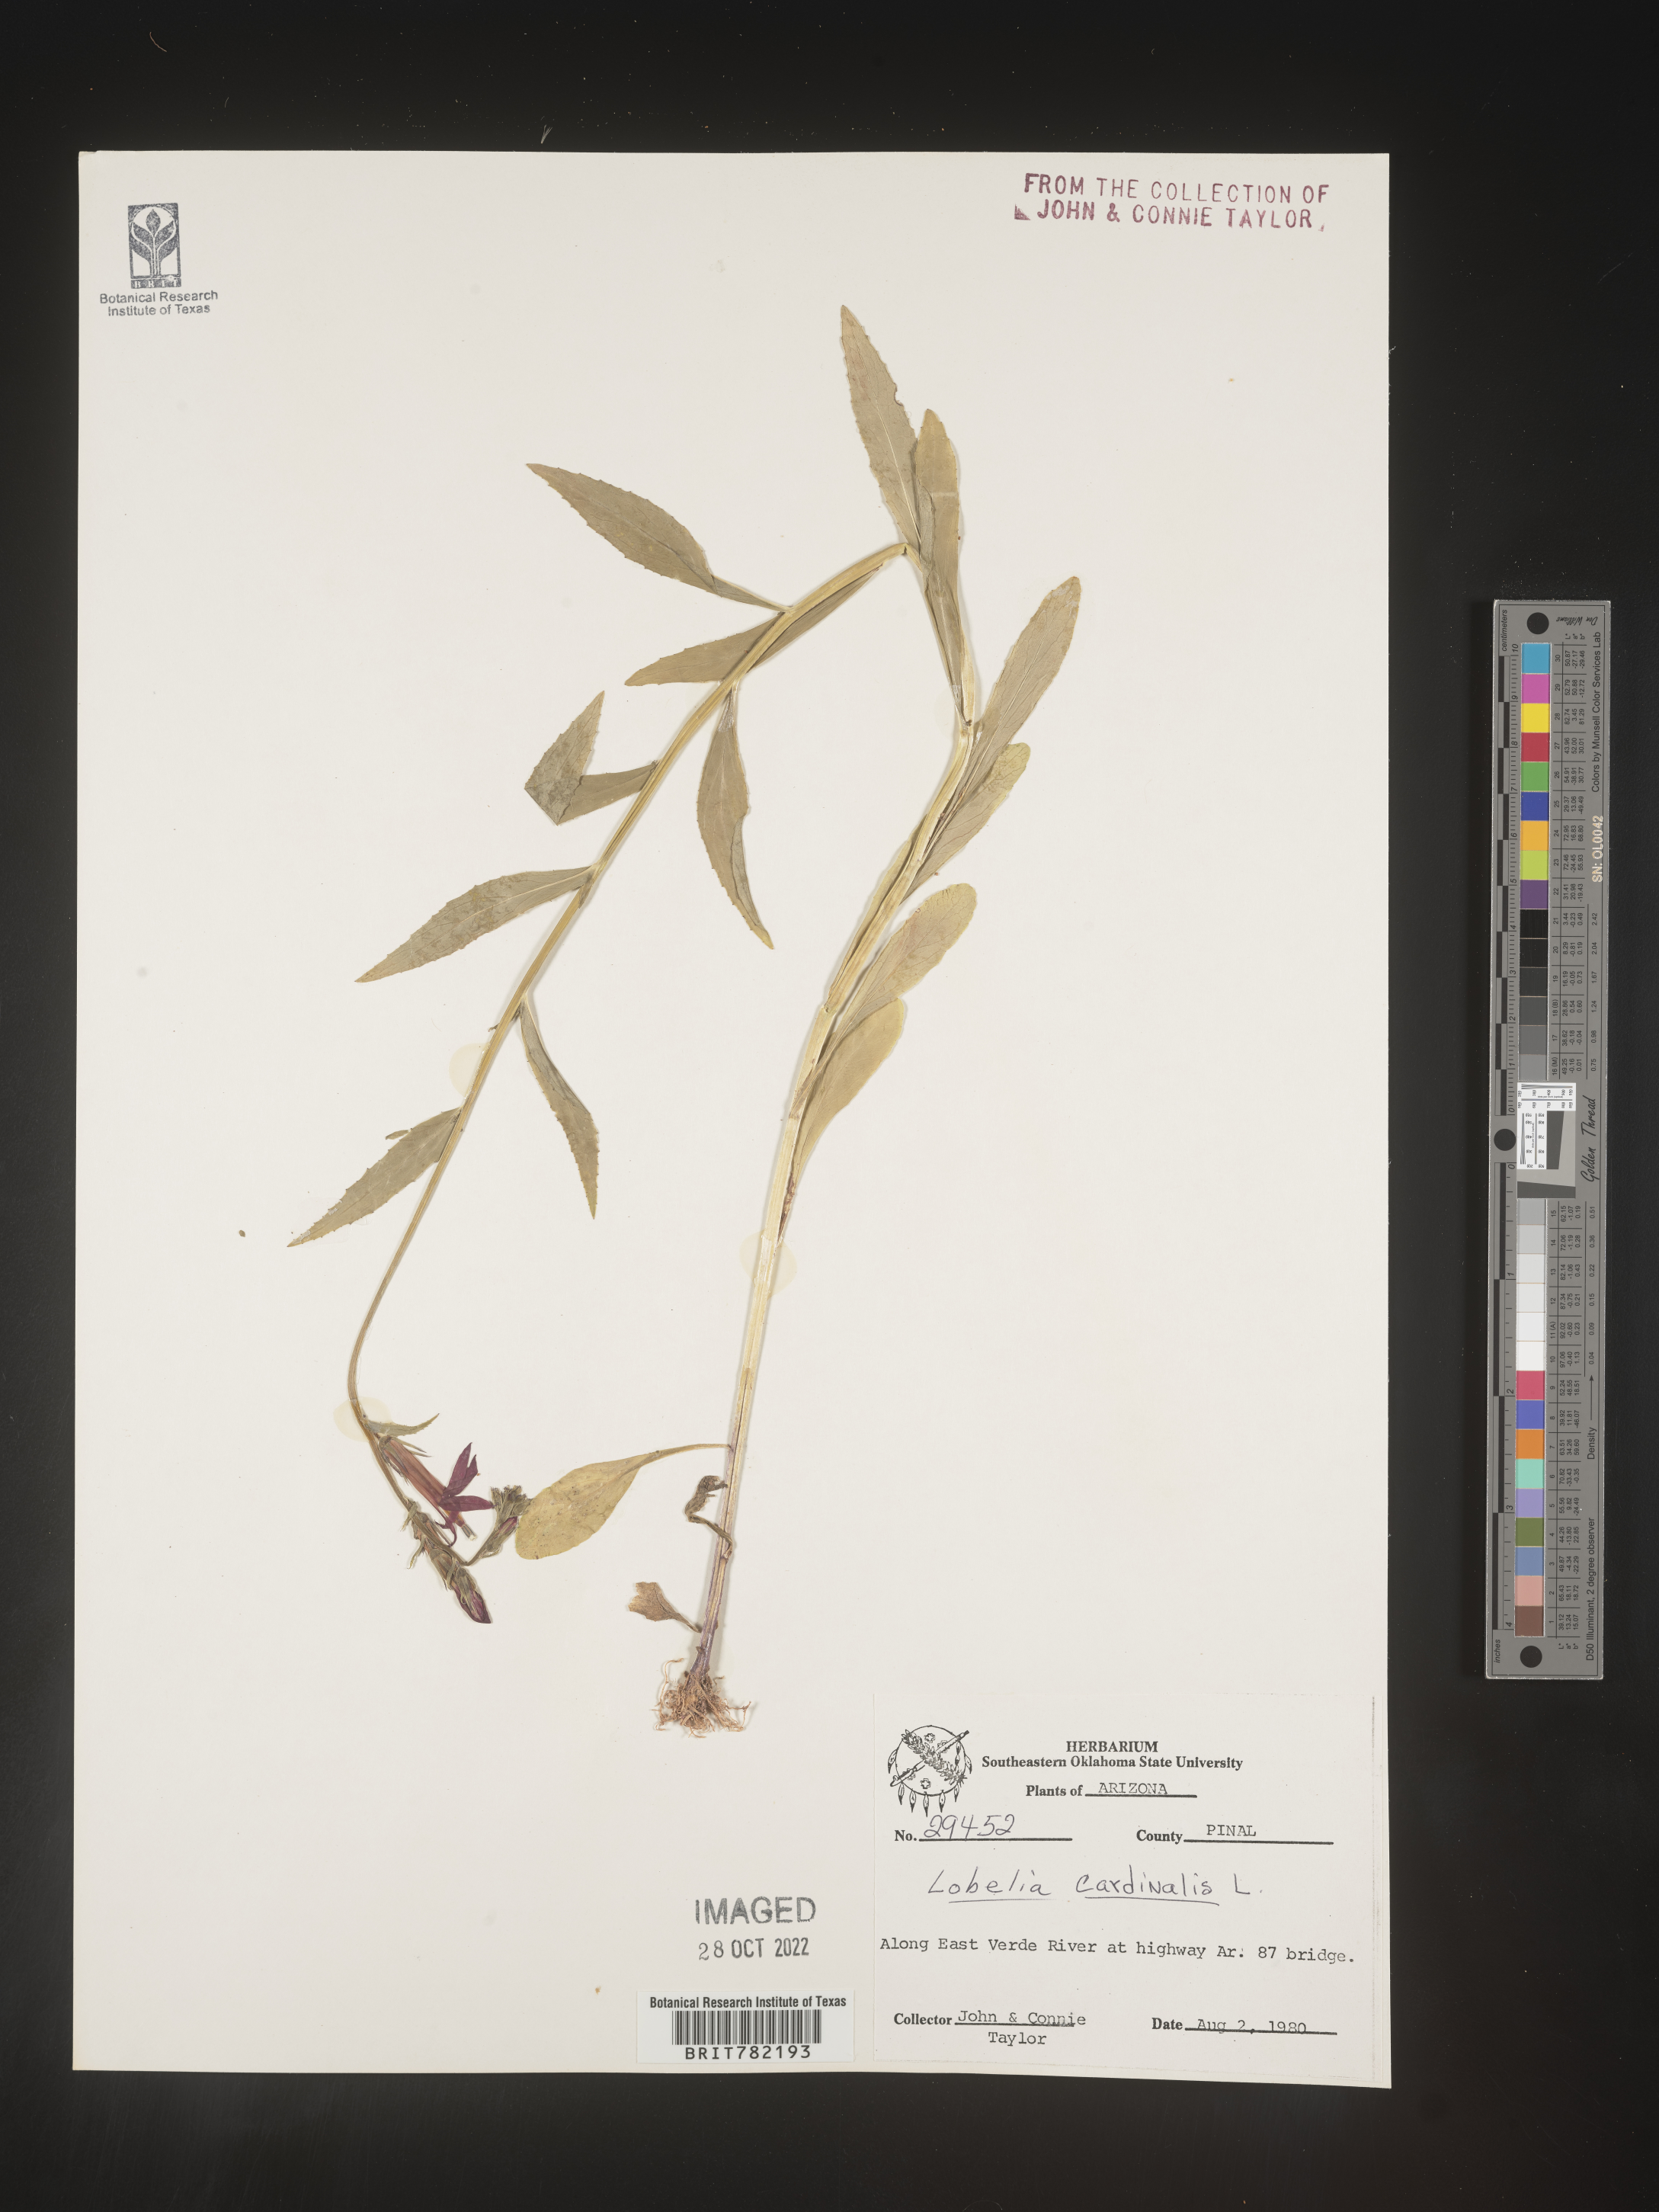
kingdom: Plantae
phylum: Tracheophyta
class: Magnoliopsida
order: Asterales
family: Campanulaceae
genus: Lobelia
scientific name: Lobelia cardinalis
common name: Cardinal flower
